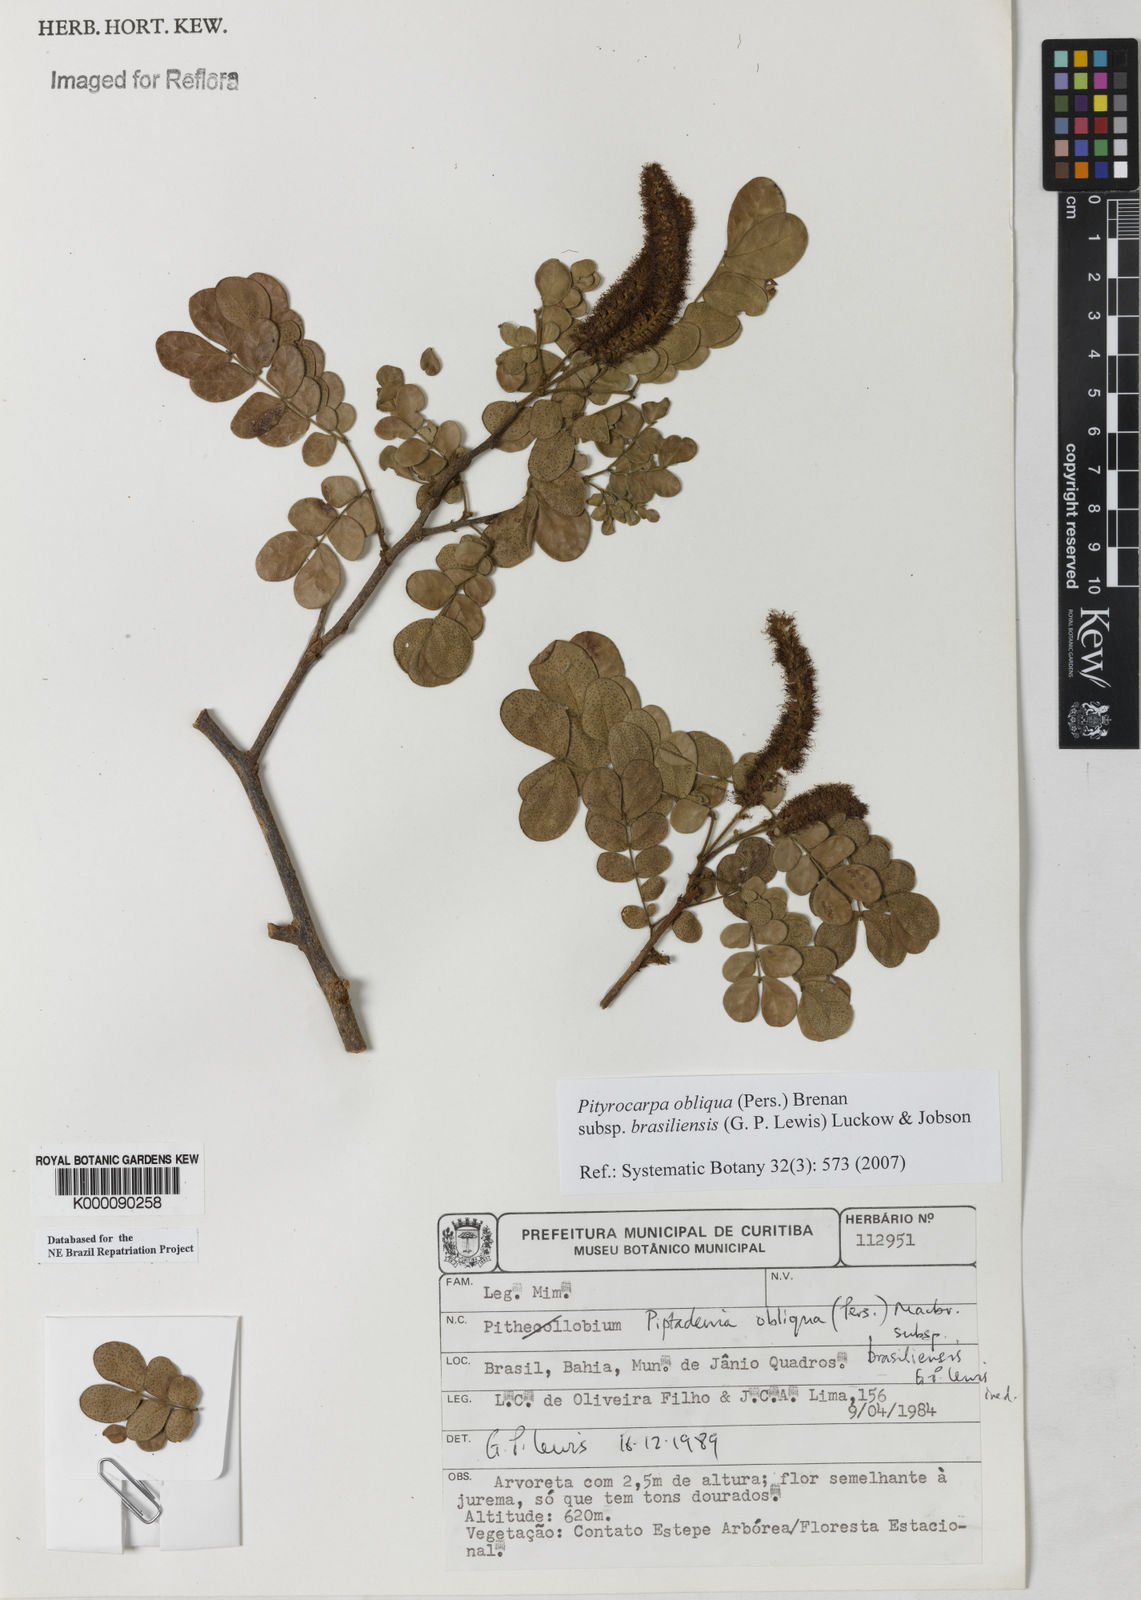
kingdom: Plantae
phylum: Tracheophyta
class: Magnoliopsida
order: Fabales
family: Fabaceae
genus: Pityrocarpa
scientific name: Pityrocarpa obliqua
